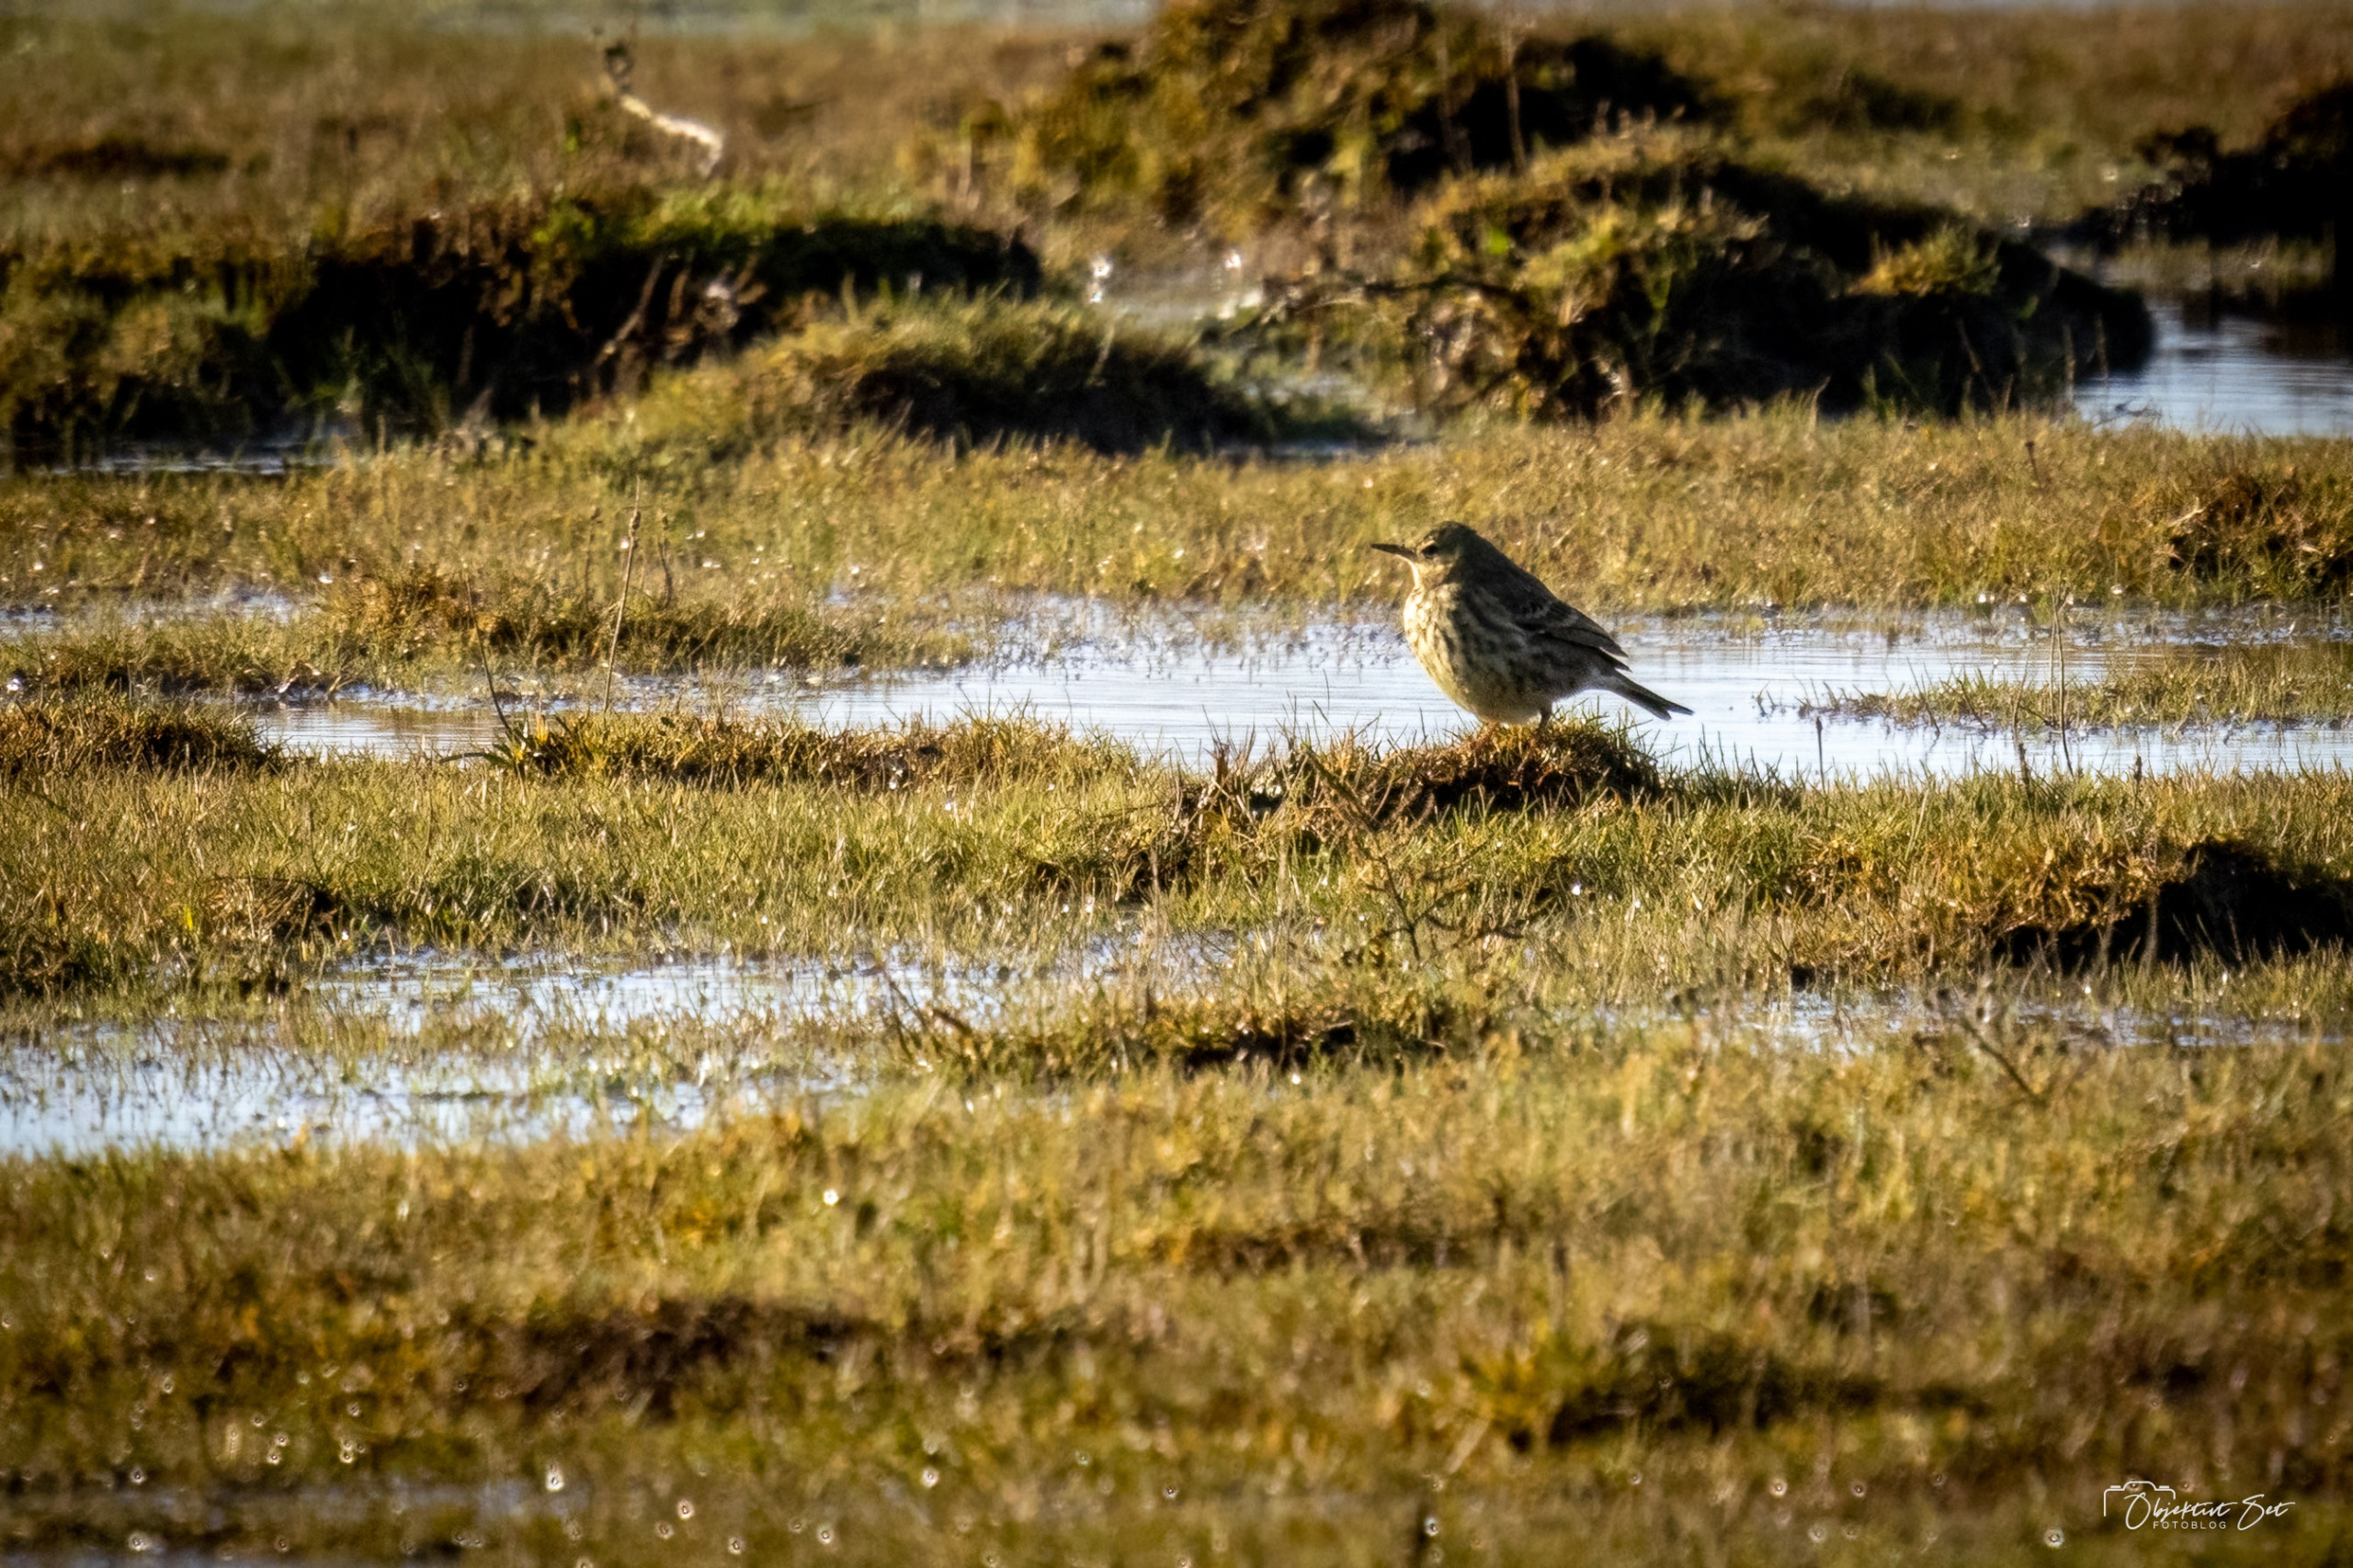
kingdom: Animalia
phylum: Chordata
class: Aves
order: Passeriformes
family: Motacillidae
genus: Anthus
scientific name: Anthus pratensis
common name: Engpiber
